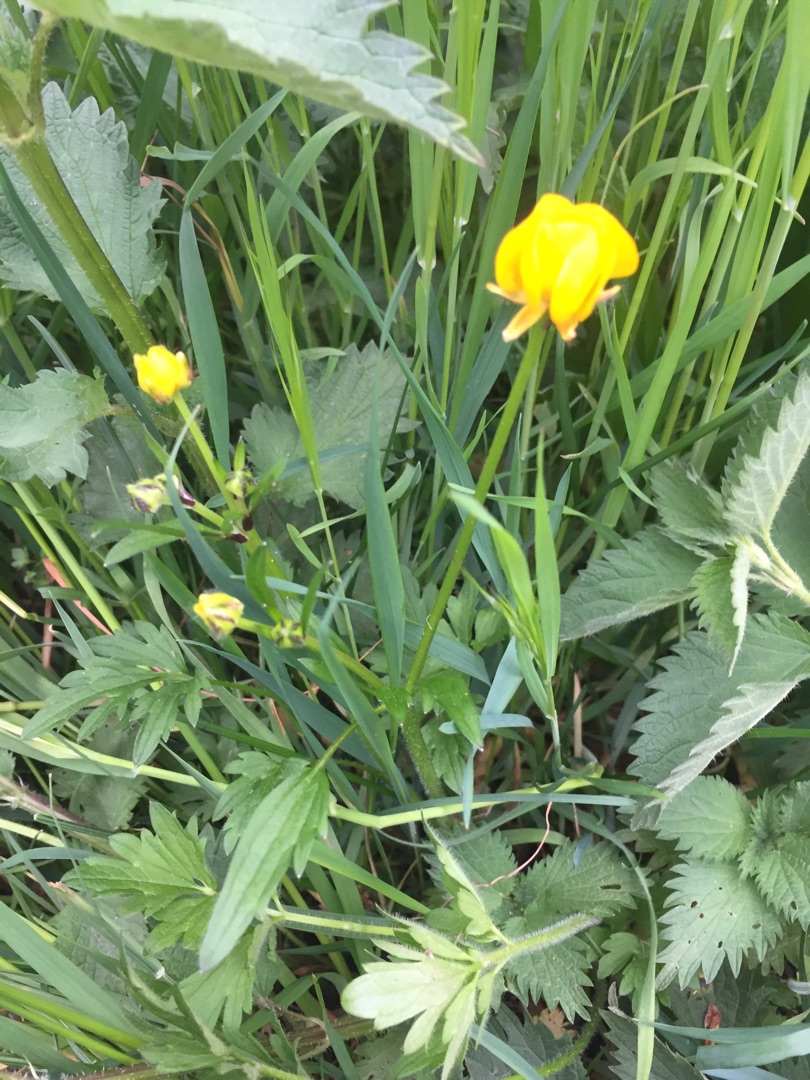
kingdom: Plantae
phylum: Tracheophyta
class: Magnoliopsida
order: Ranunculales
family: Ranunculaceae
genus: Ranunculus
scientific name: Ranunculus repens
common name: Lav ranunkel
